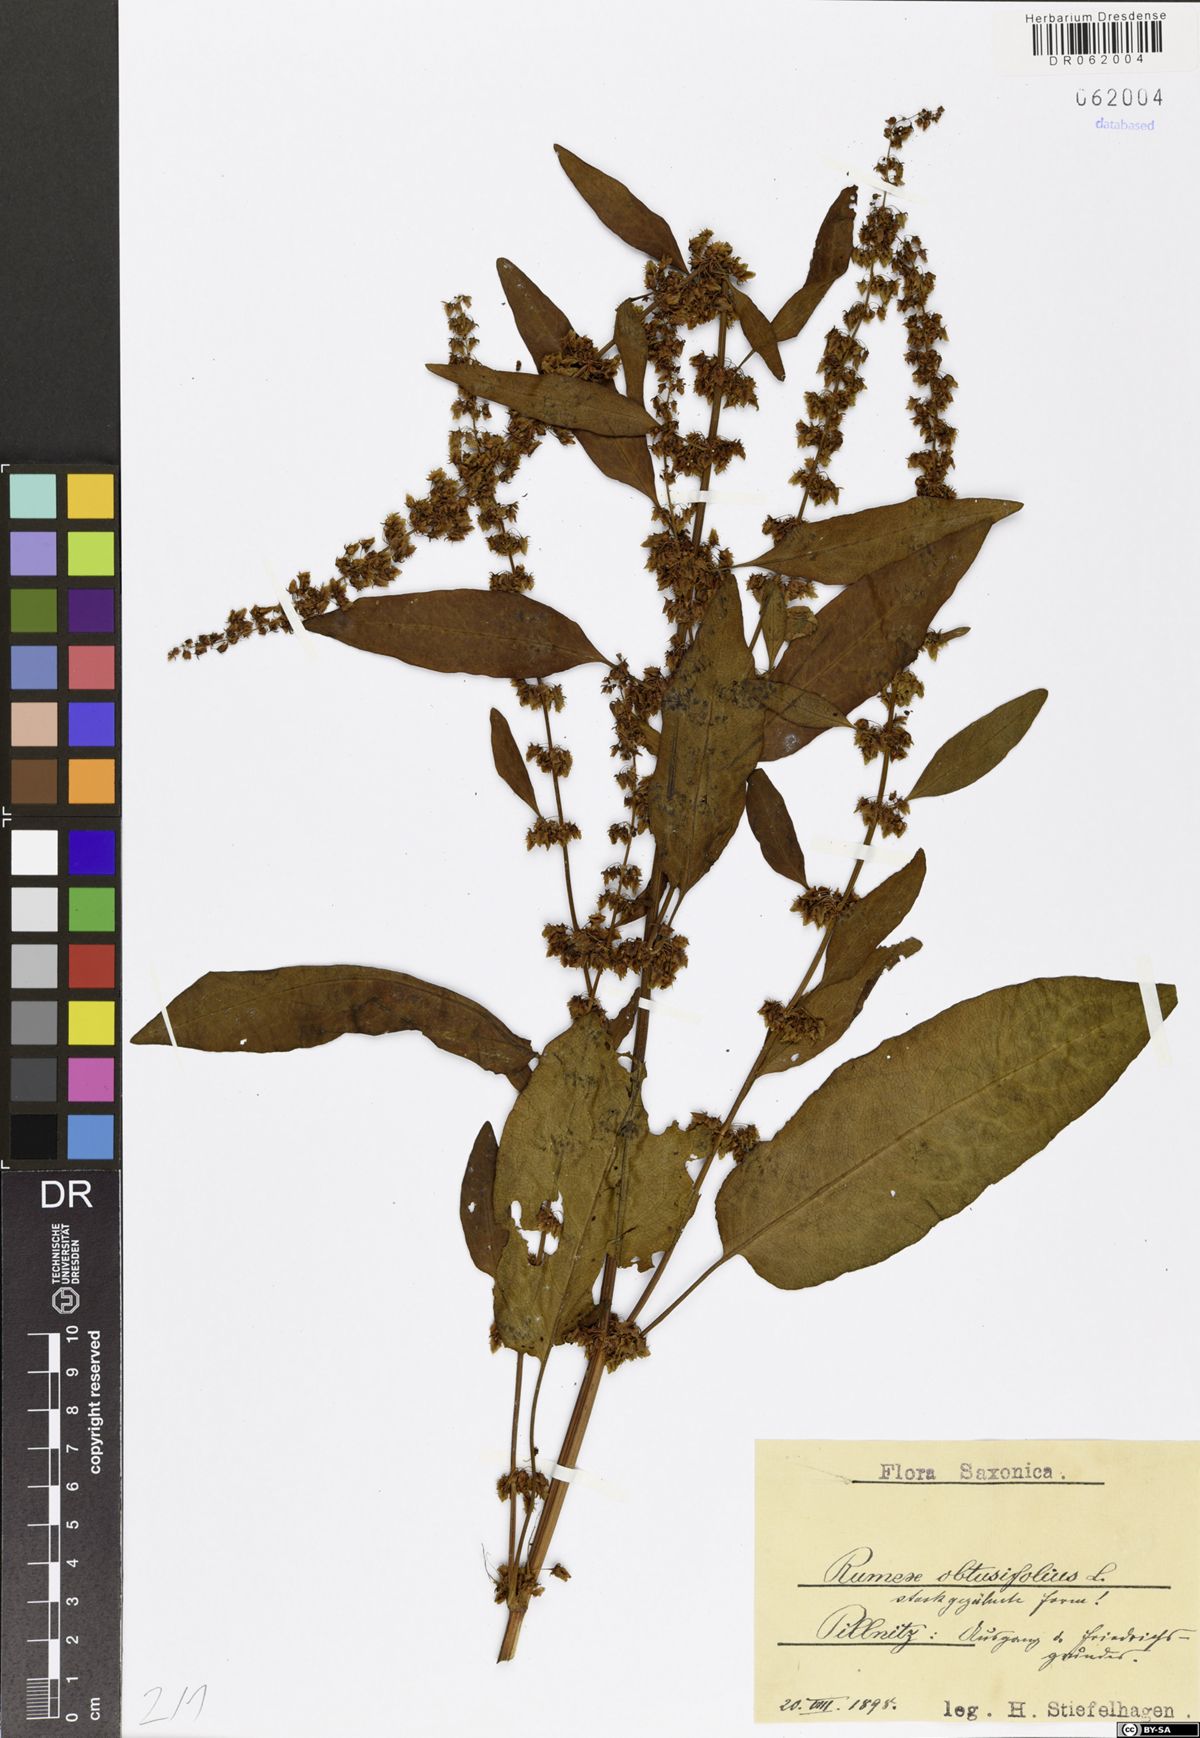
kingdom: Plantae
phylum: Tracheophyta
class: Magnoliopsida
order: Caryophyllales
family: Polygonaceae
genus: Rumex
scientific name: Rumex obtusifolius
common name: Bitter dock
